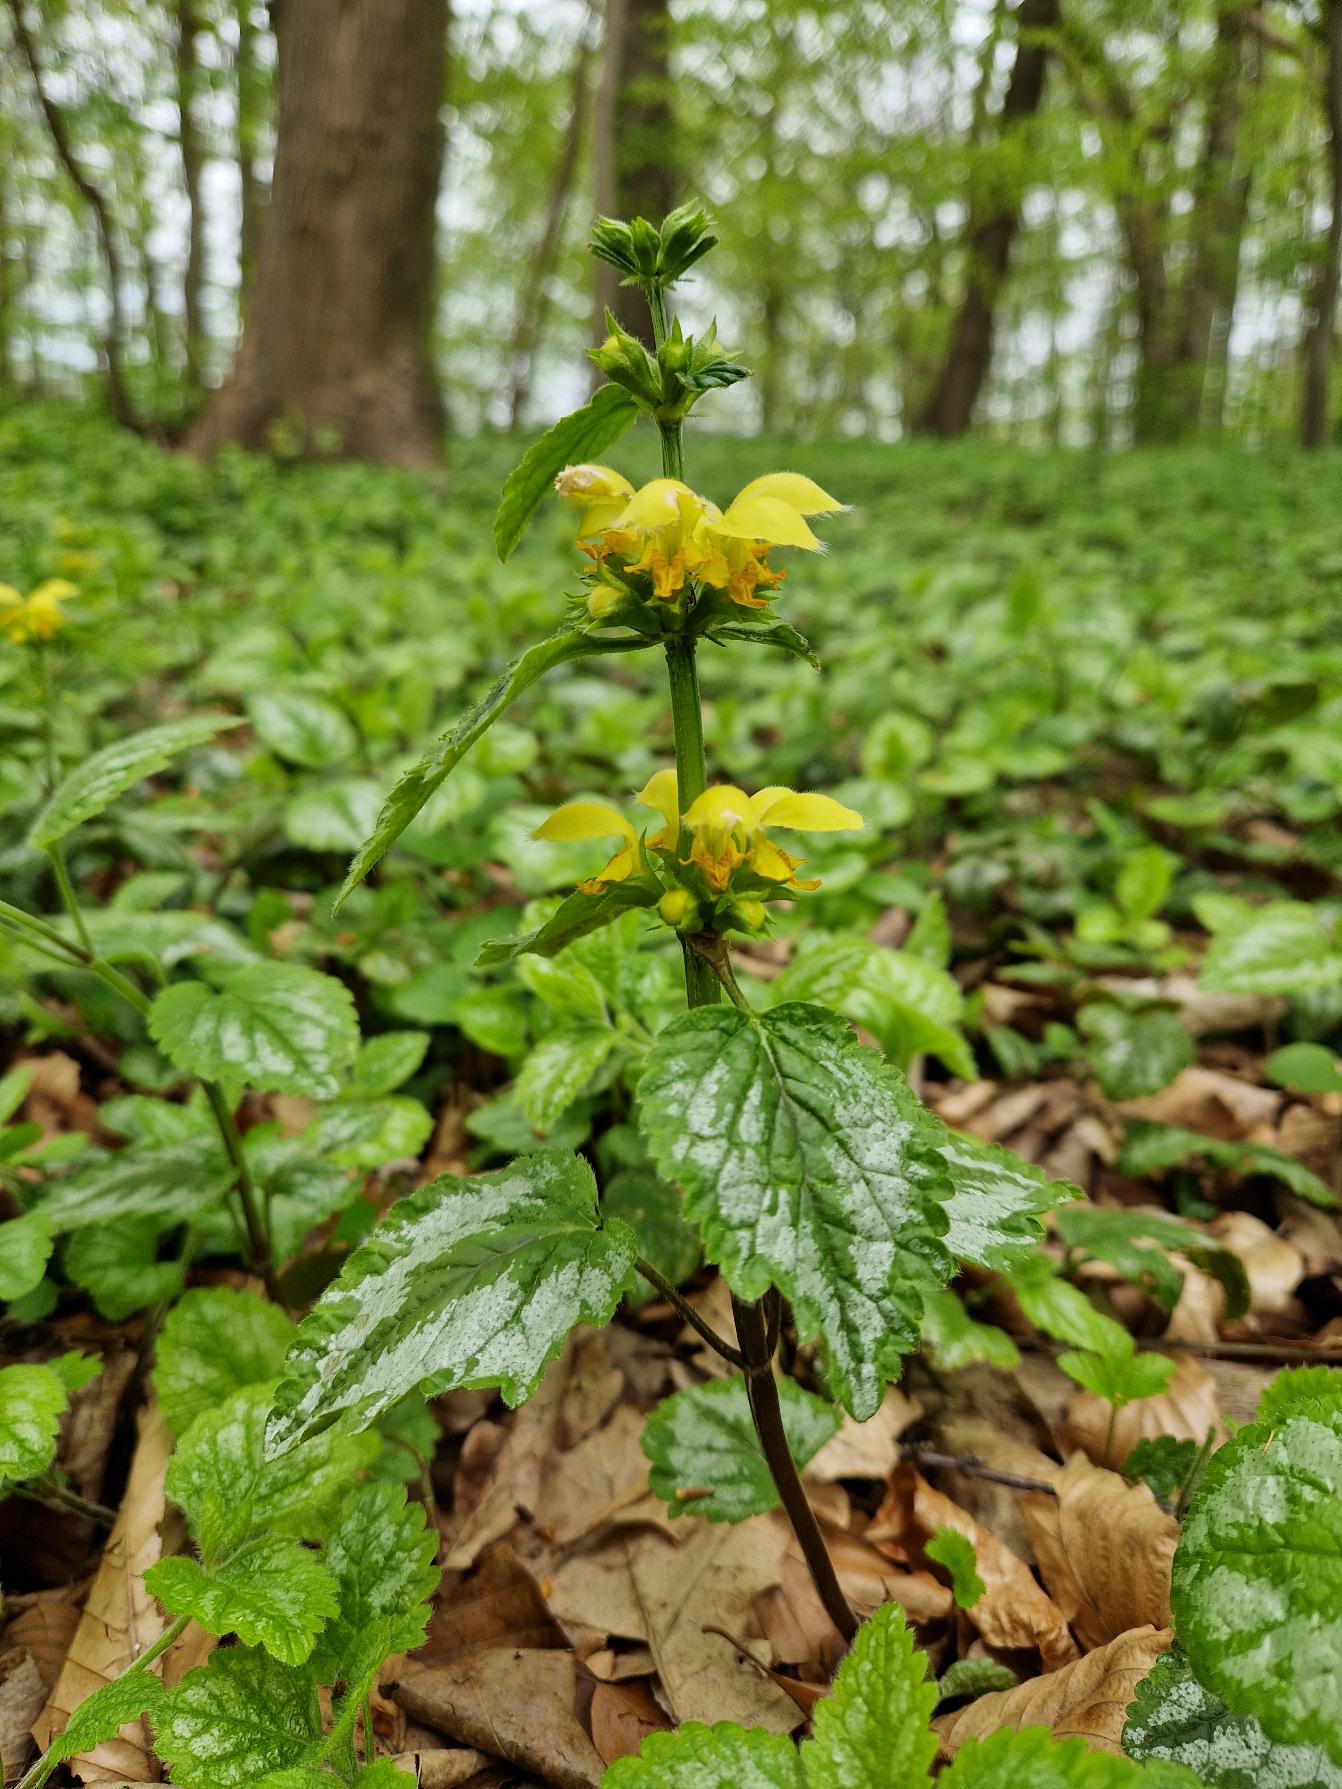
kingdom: Plantae
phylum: Tracheophyta
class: Magnoliopsida
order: Lamiales
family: Lamiaceae
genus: Lamium
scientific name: Lamium galeobdolon
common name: Have-guldnælde
